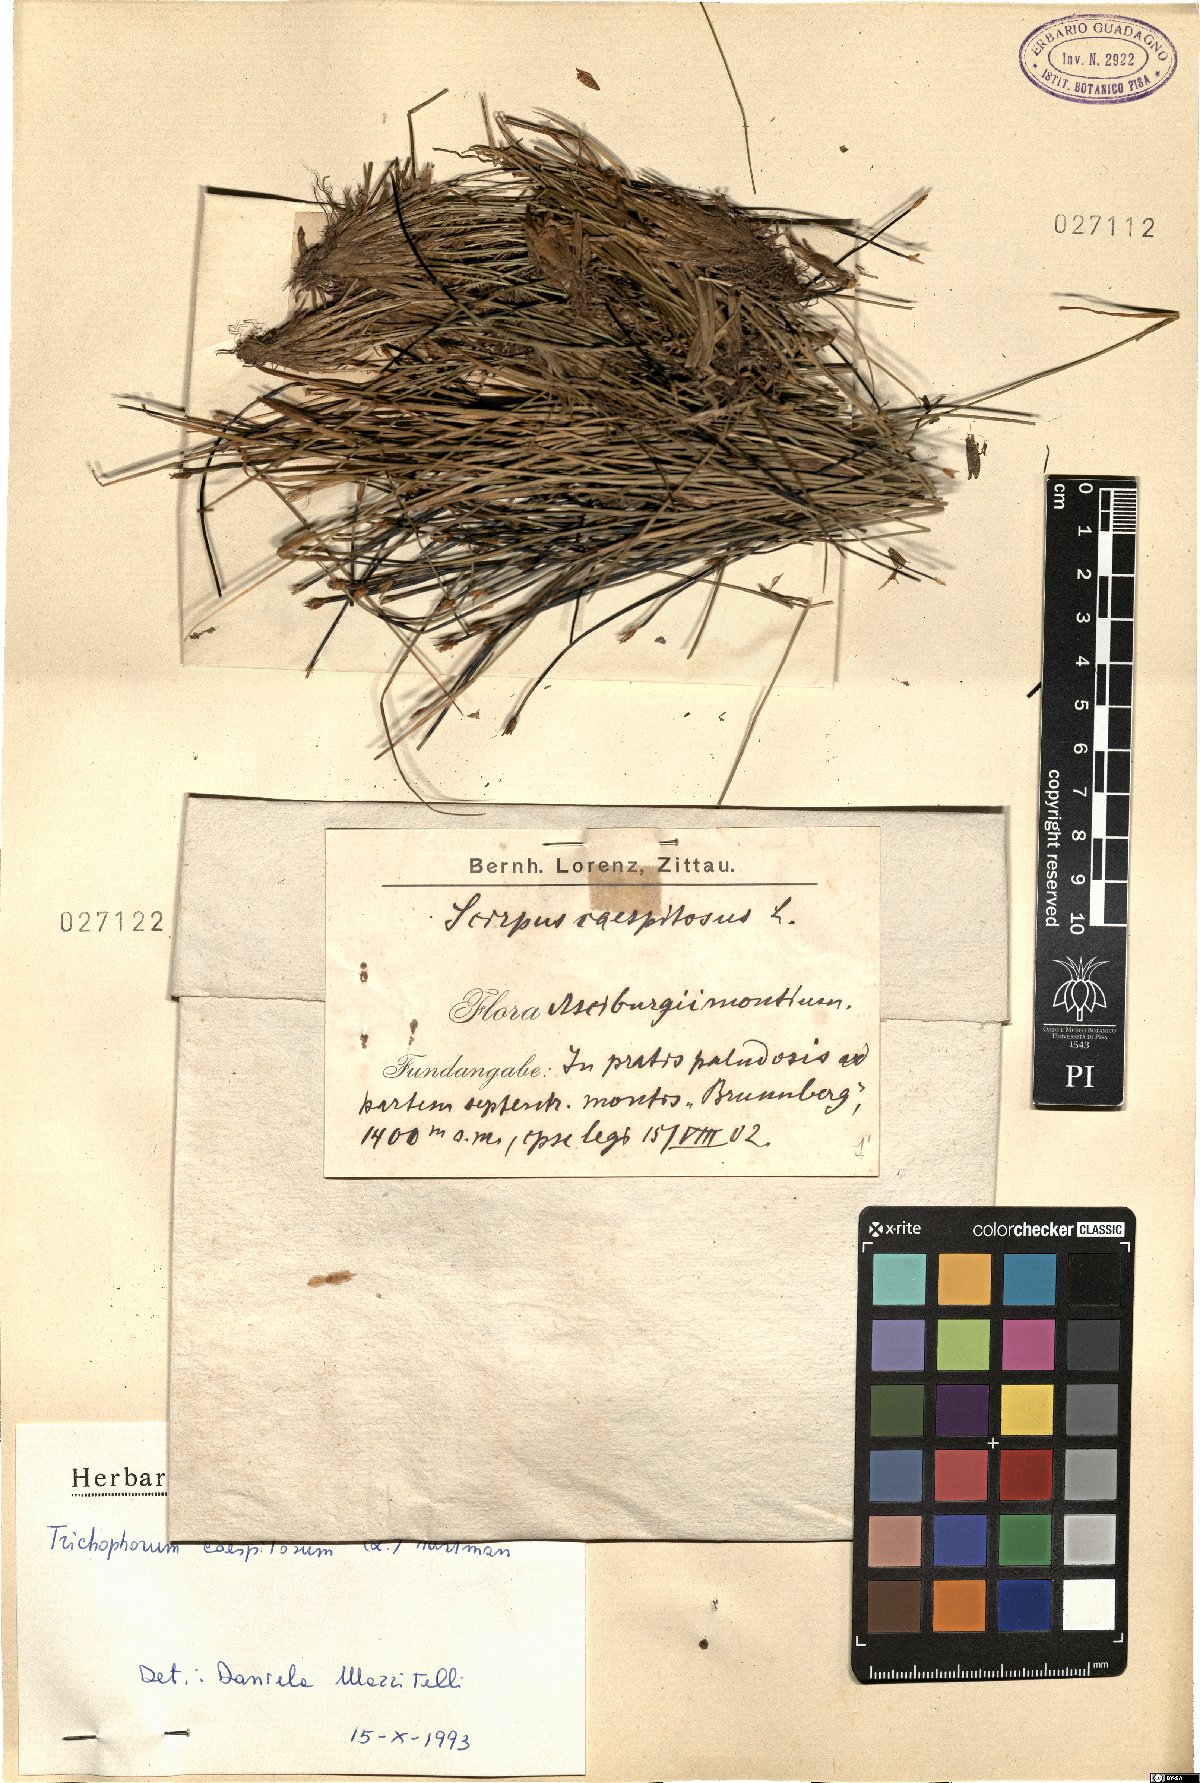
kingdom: Plantae
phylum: Tracheophyta
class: Liliopsida
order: Poales
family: Cyperaceae
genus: Trichophorum
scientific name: Trichophorum cespitosum
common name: Cespitose bulrush
